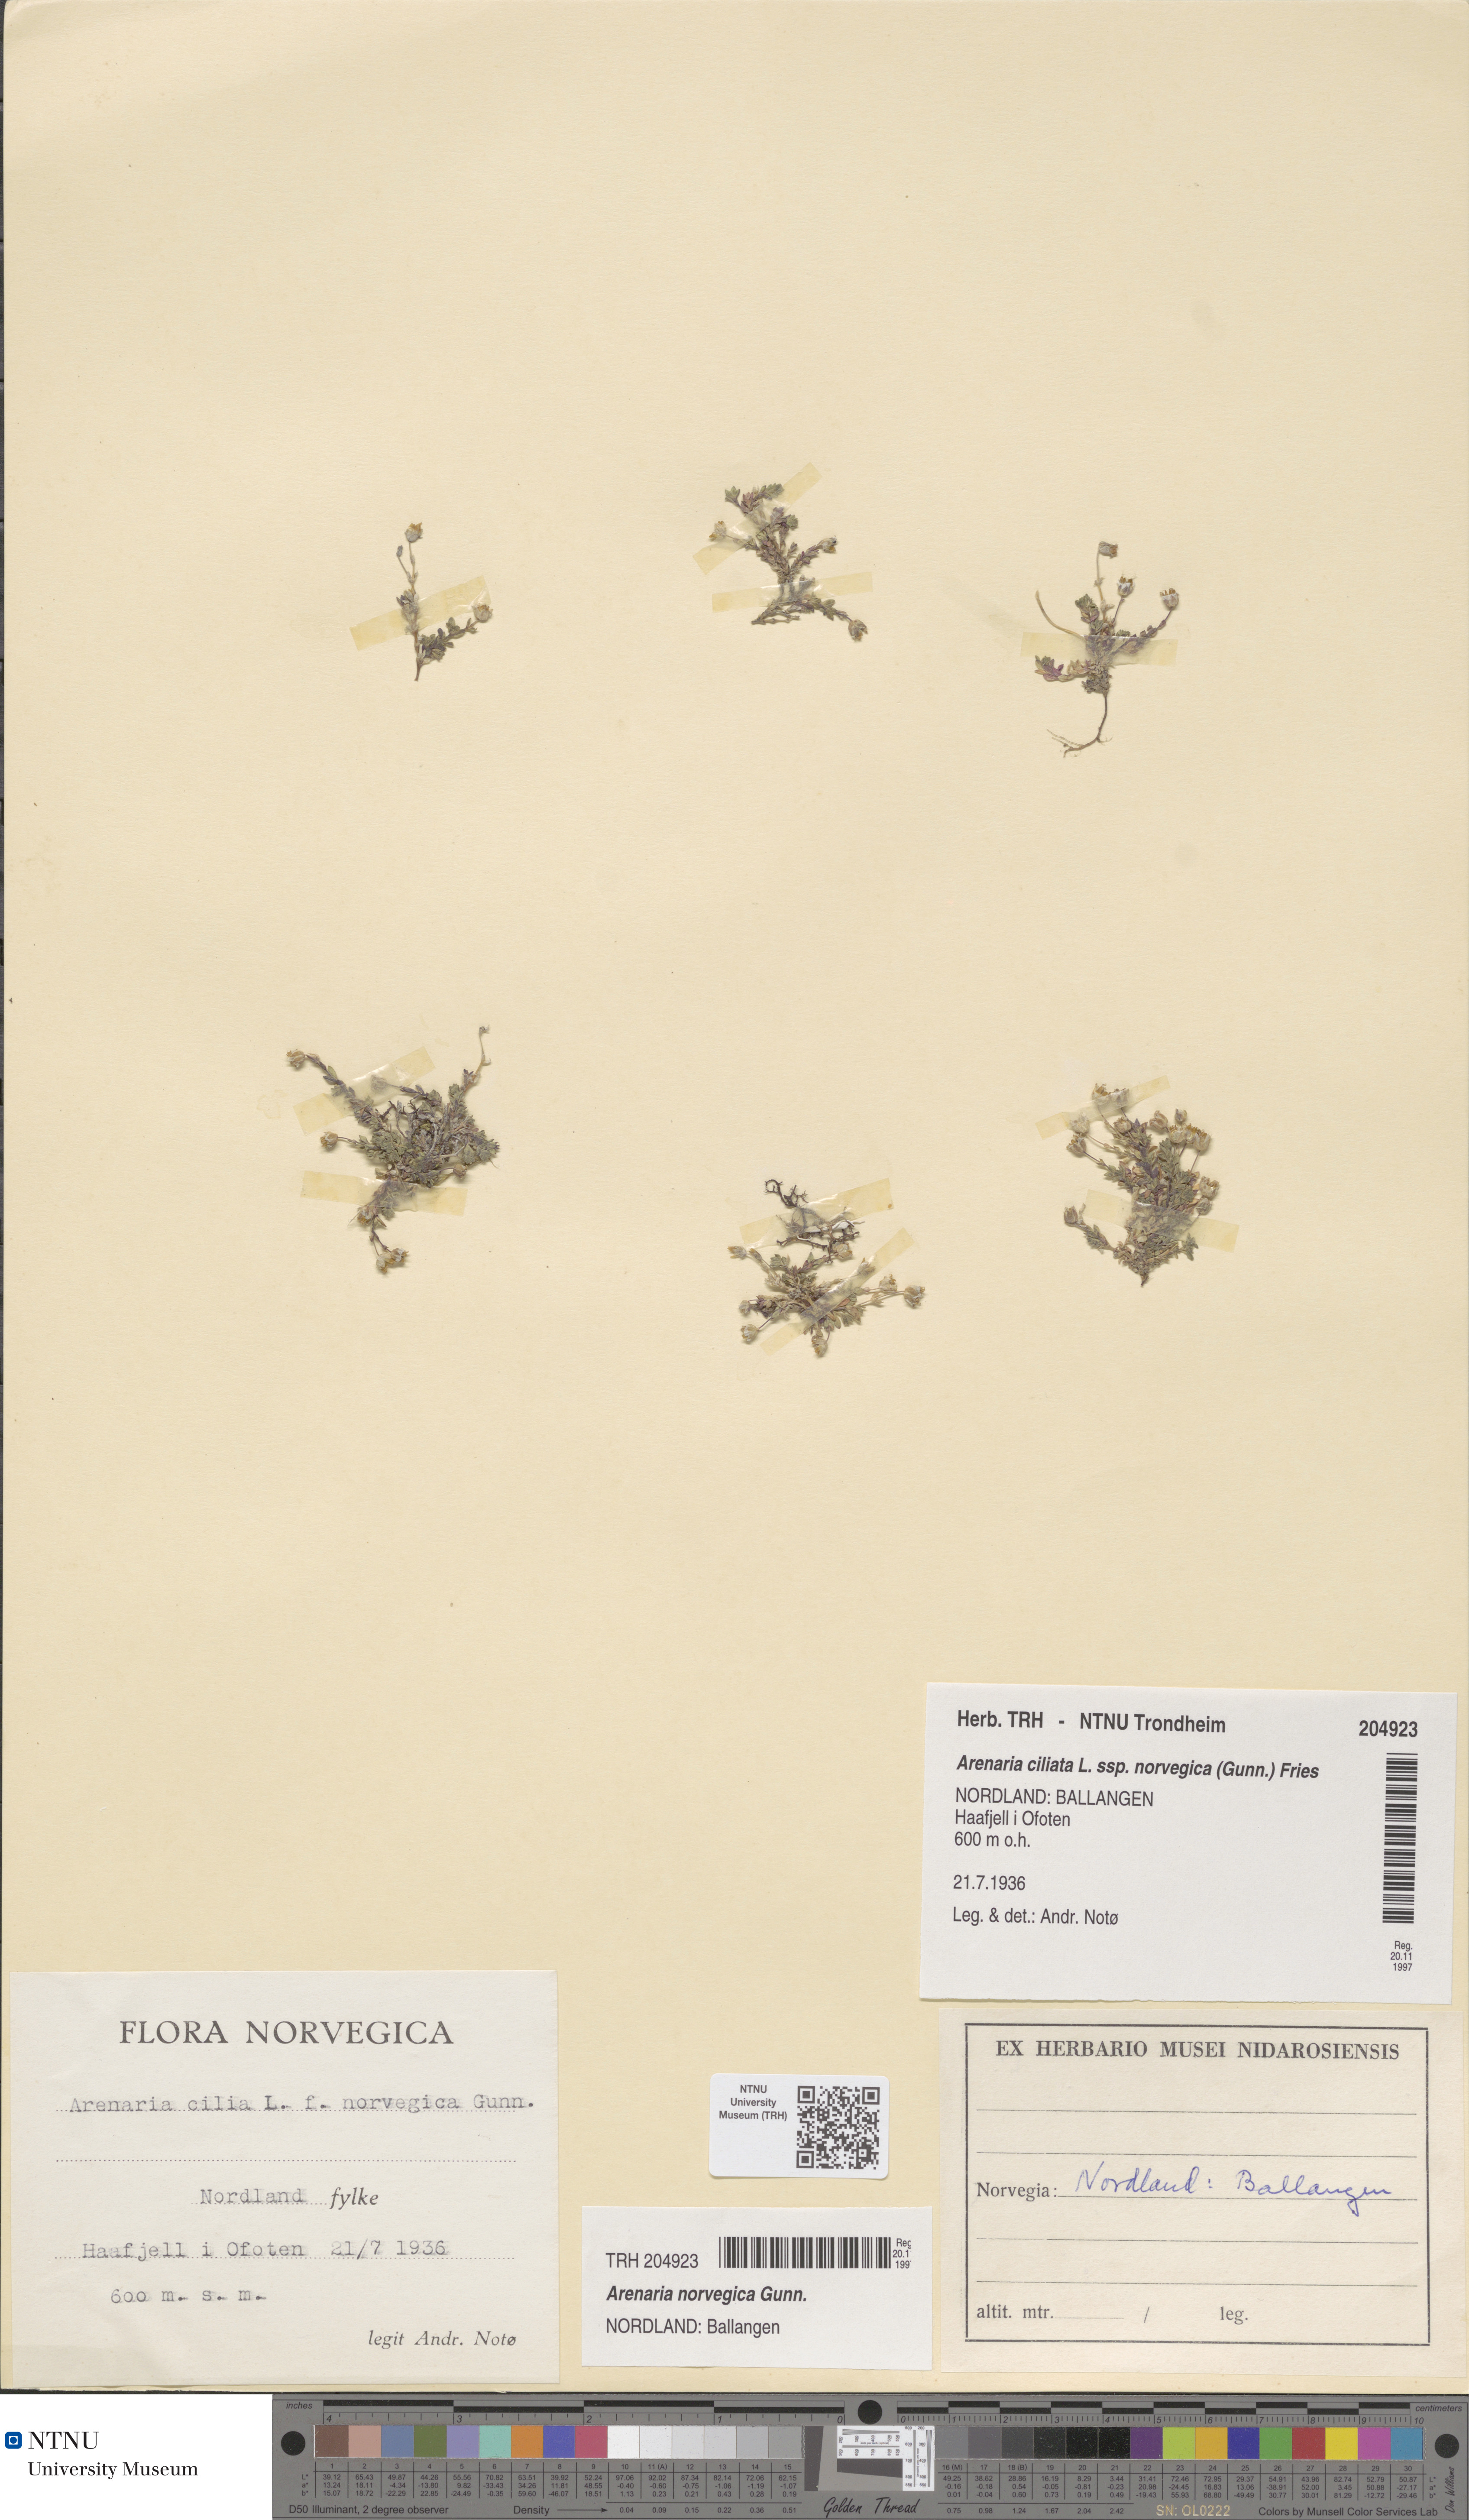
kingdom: Plantae
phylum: Tracheophyta
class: Magnoliopsida
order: Caryophyllales
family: Caryophyllaceae
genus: Arenaria
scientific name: Arenaria norvegica
